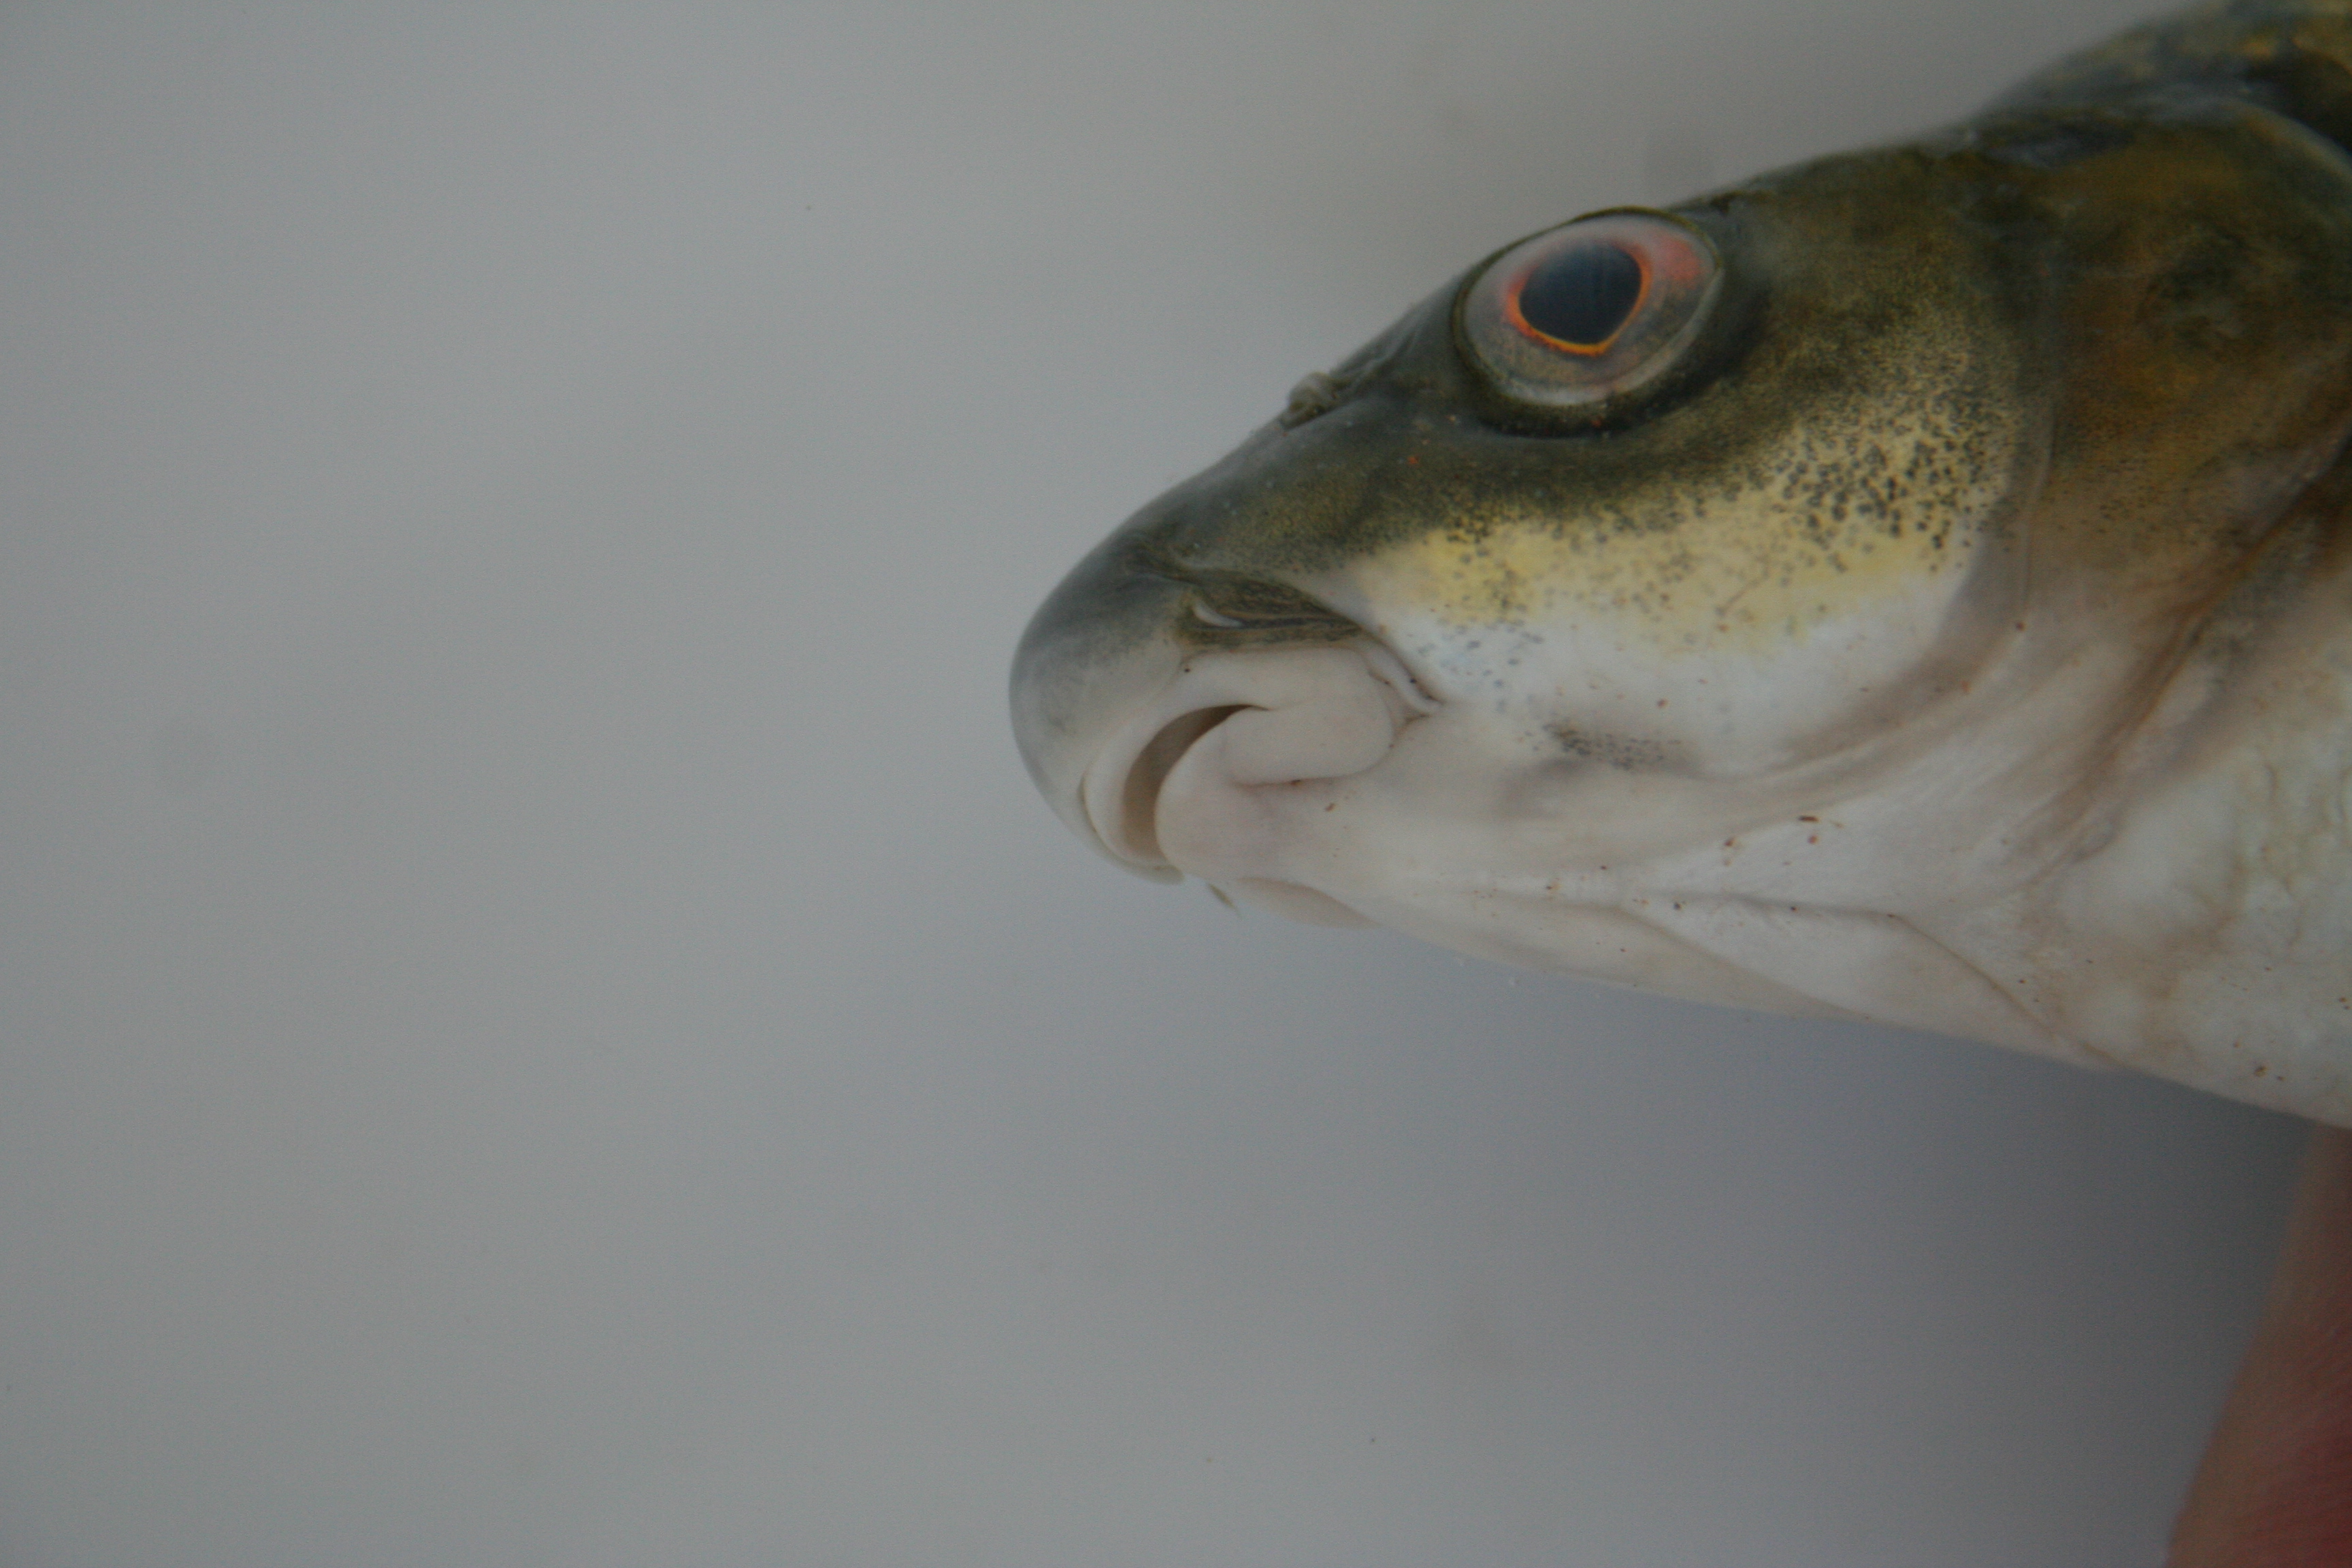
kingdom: Animalia
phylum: Chordata
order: Cypriniformes
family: Cyprinidae
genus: Labeobarbus
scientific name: Labeobarbus
